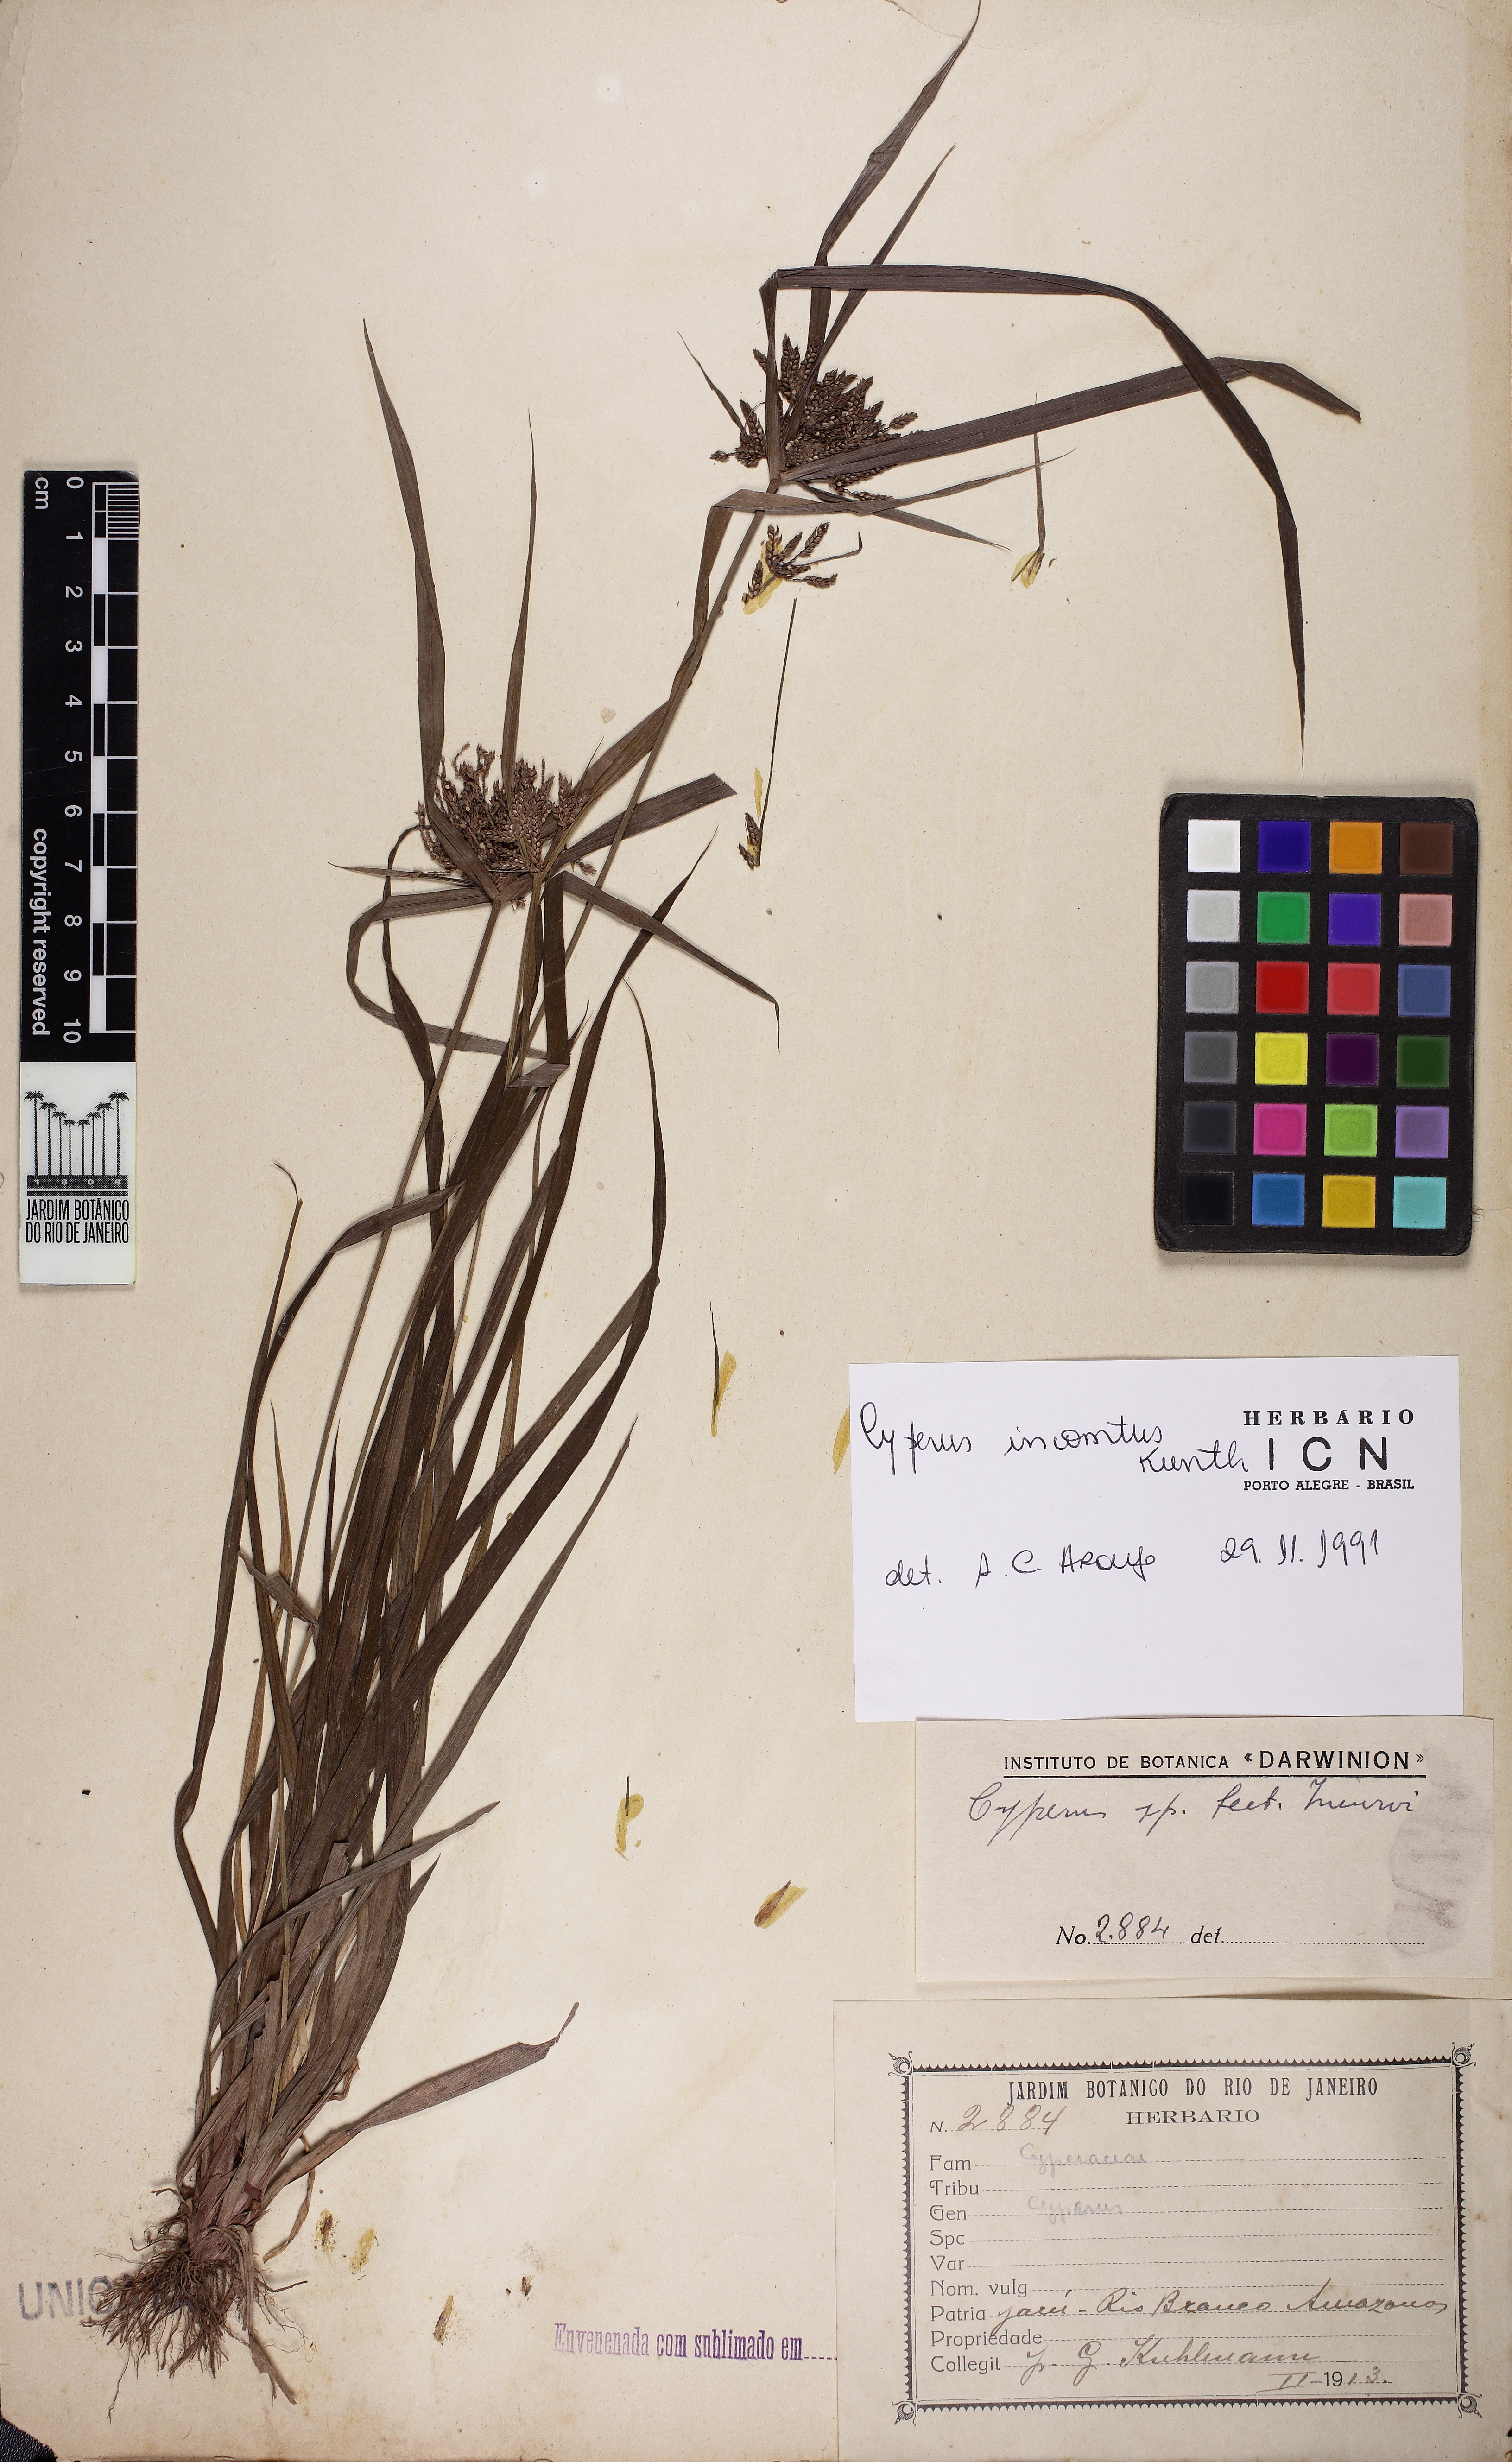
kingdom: Plantae
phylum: Tracheophyta
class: Liliopsida
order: Poales
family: Cyperaceae
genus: Cyperus
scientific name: Cyperus lacustris
